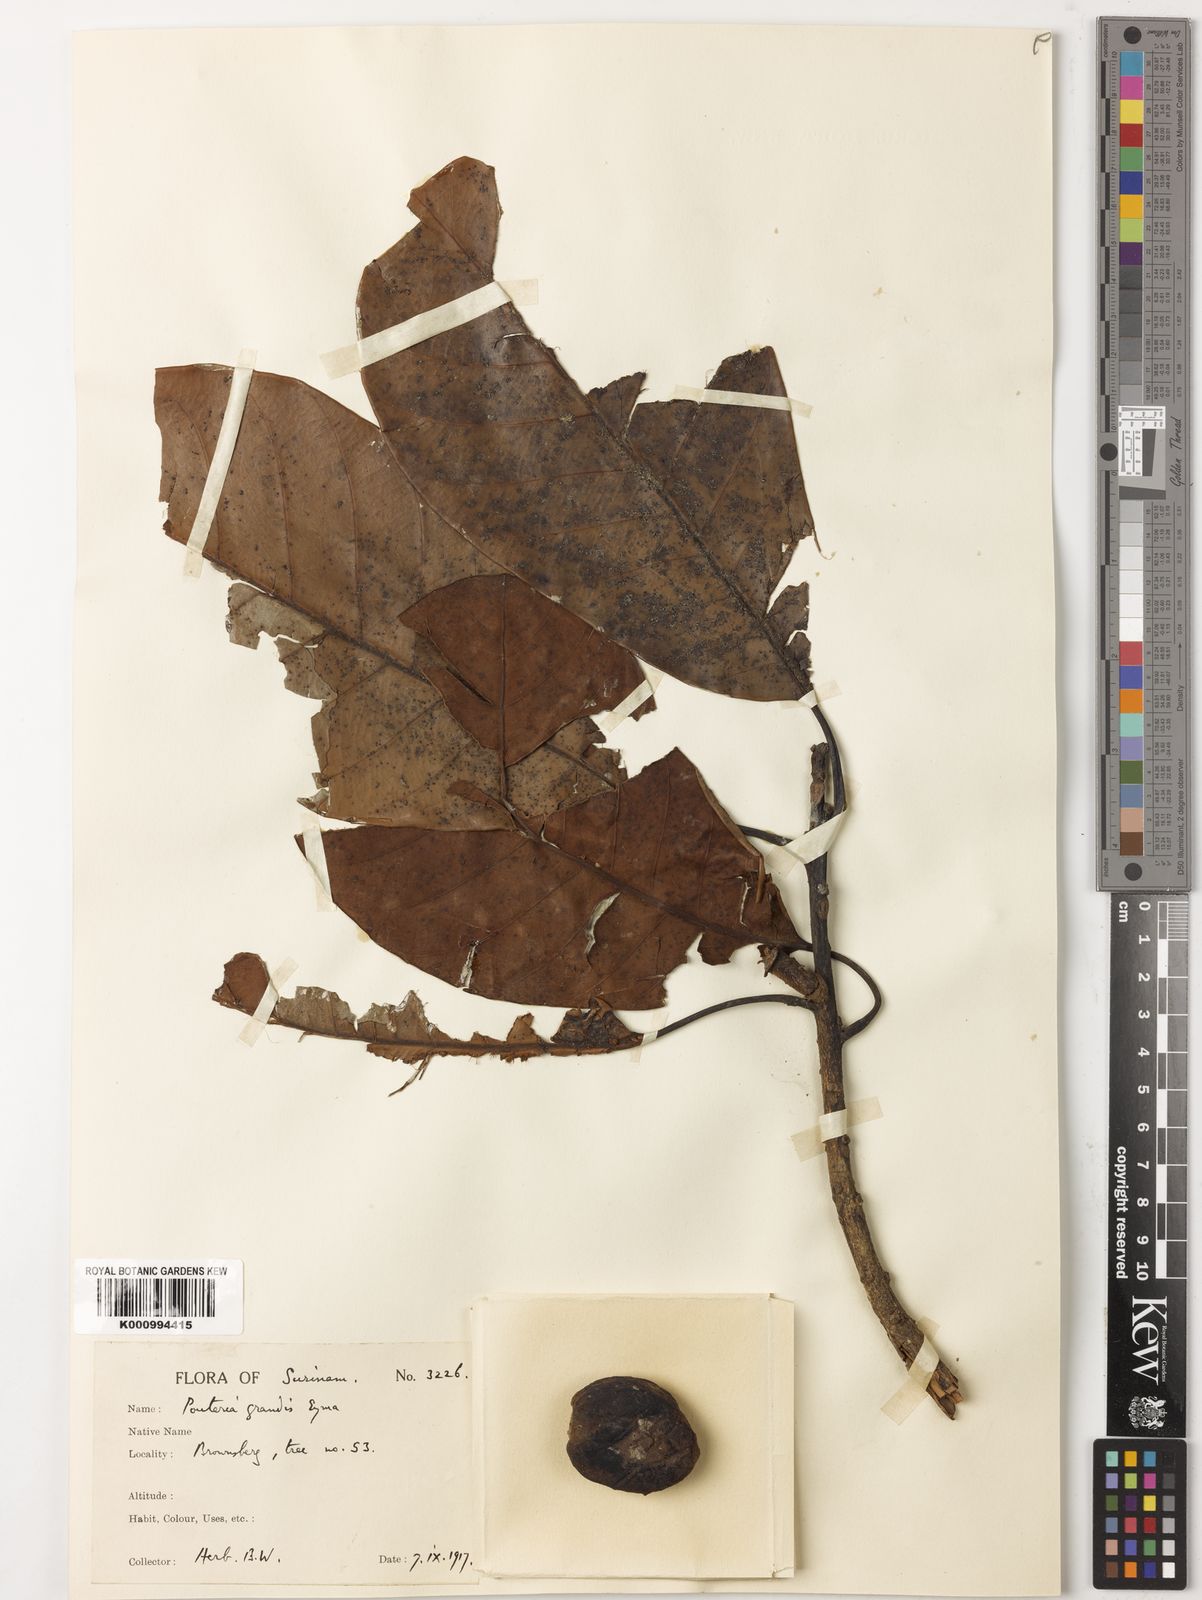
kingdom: Plantae
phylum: Tracheophyta
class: Magnoliopsida
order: Ericales
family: Sapotaceae
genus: Pouteria
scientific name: Pouteria grandis
